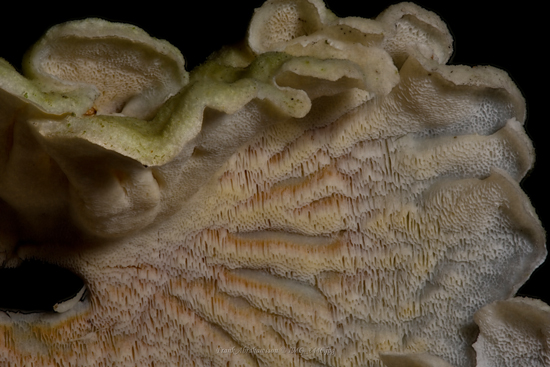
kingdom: Fungi
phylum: Basidiomycota
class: Agaricomycetes
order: Polyporales
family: Incrustoporiaceae
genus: Skeletocutis
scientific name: Skeletocutis amorpha
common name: orange krystalporesvamp
